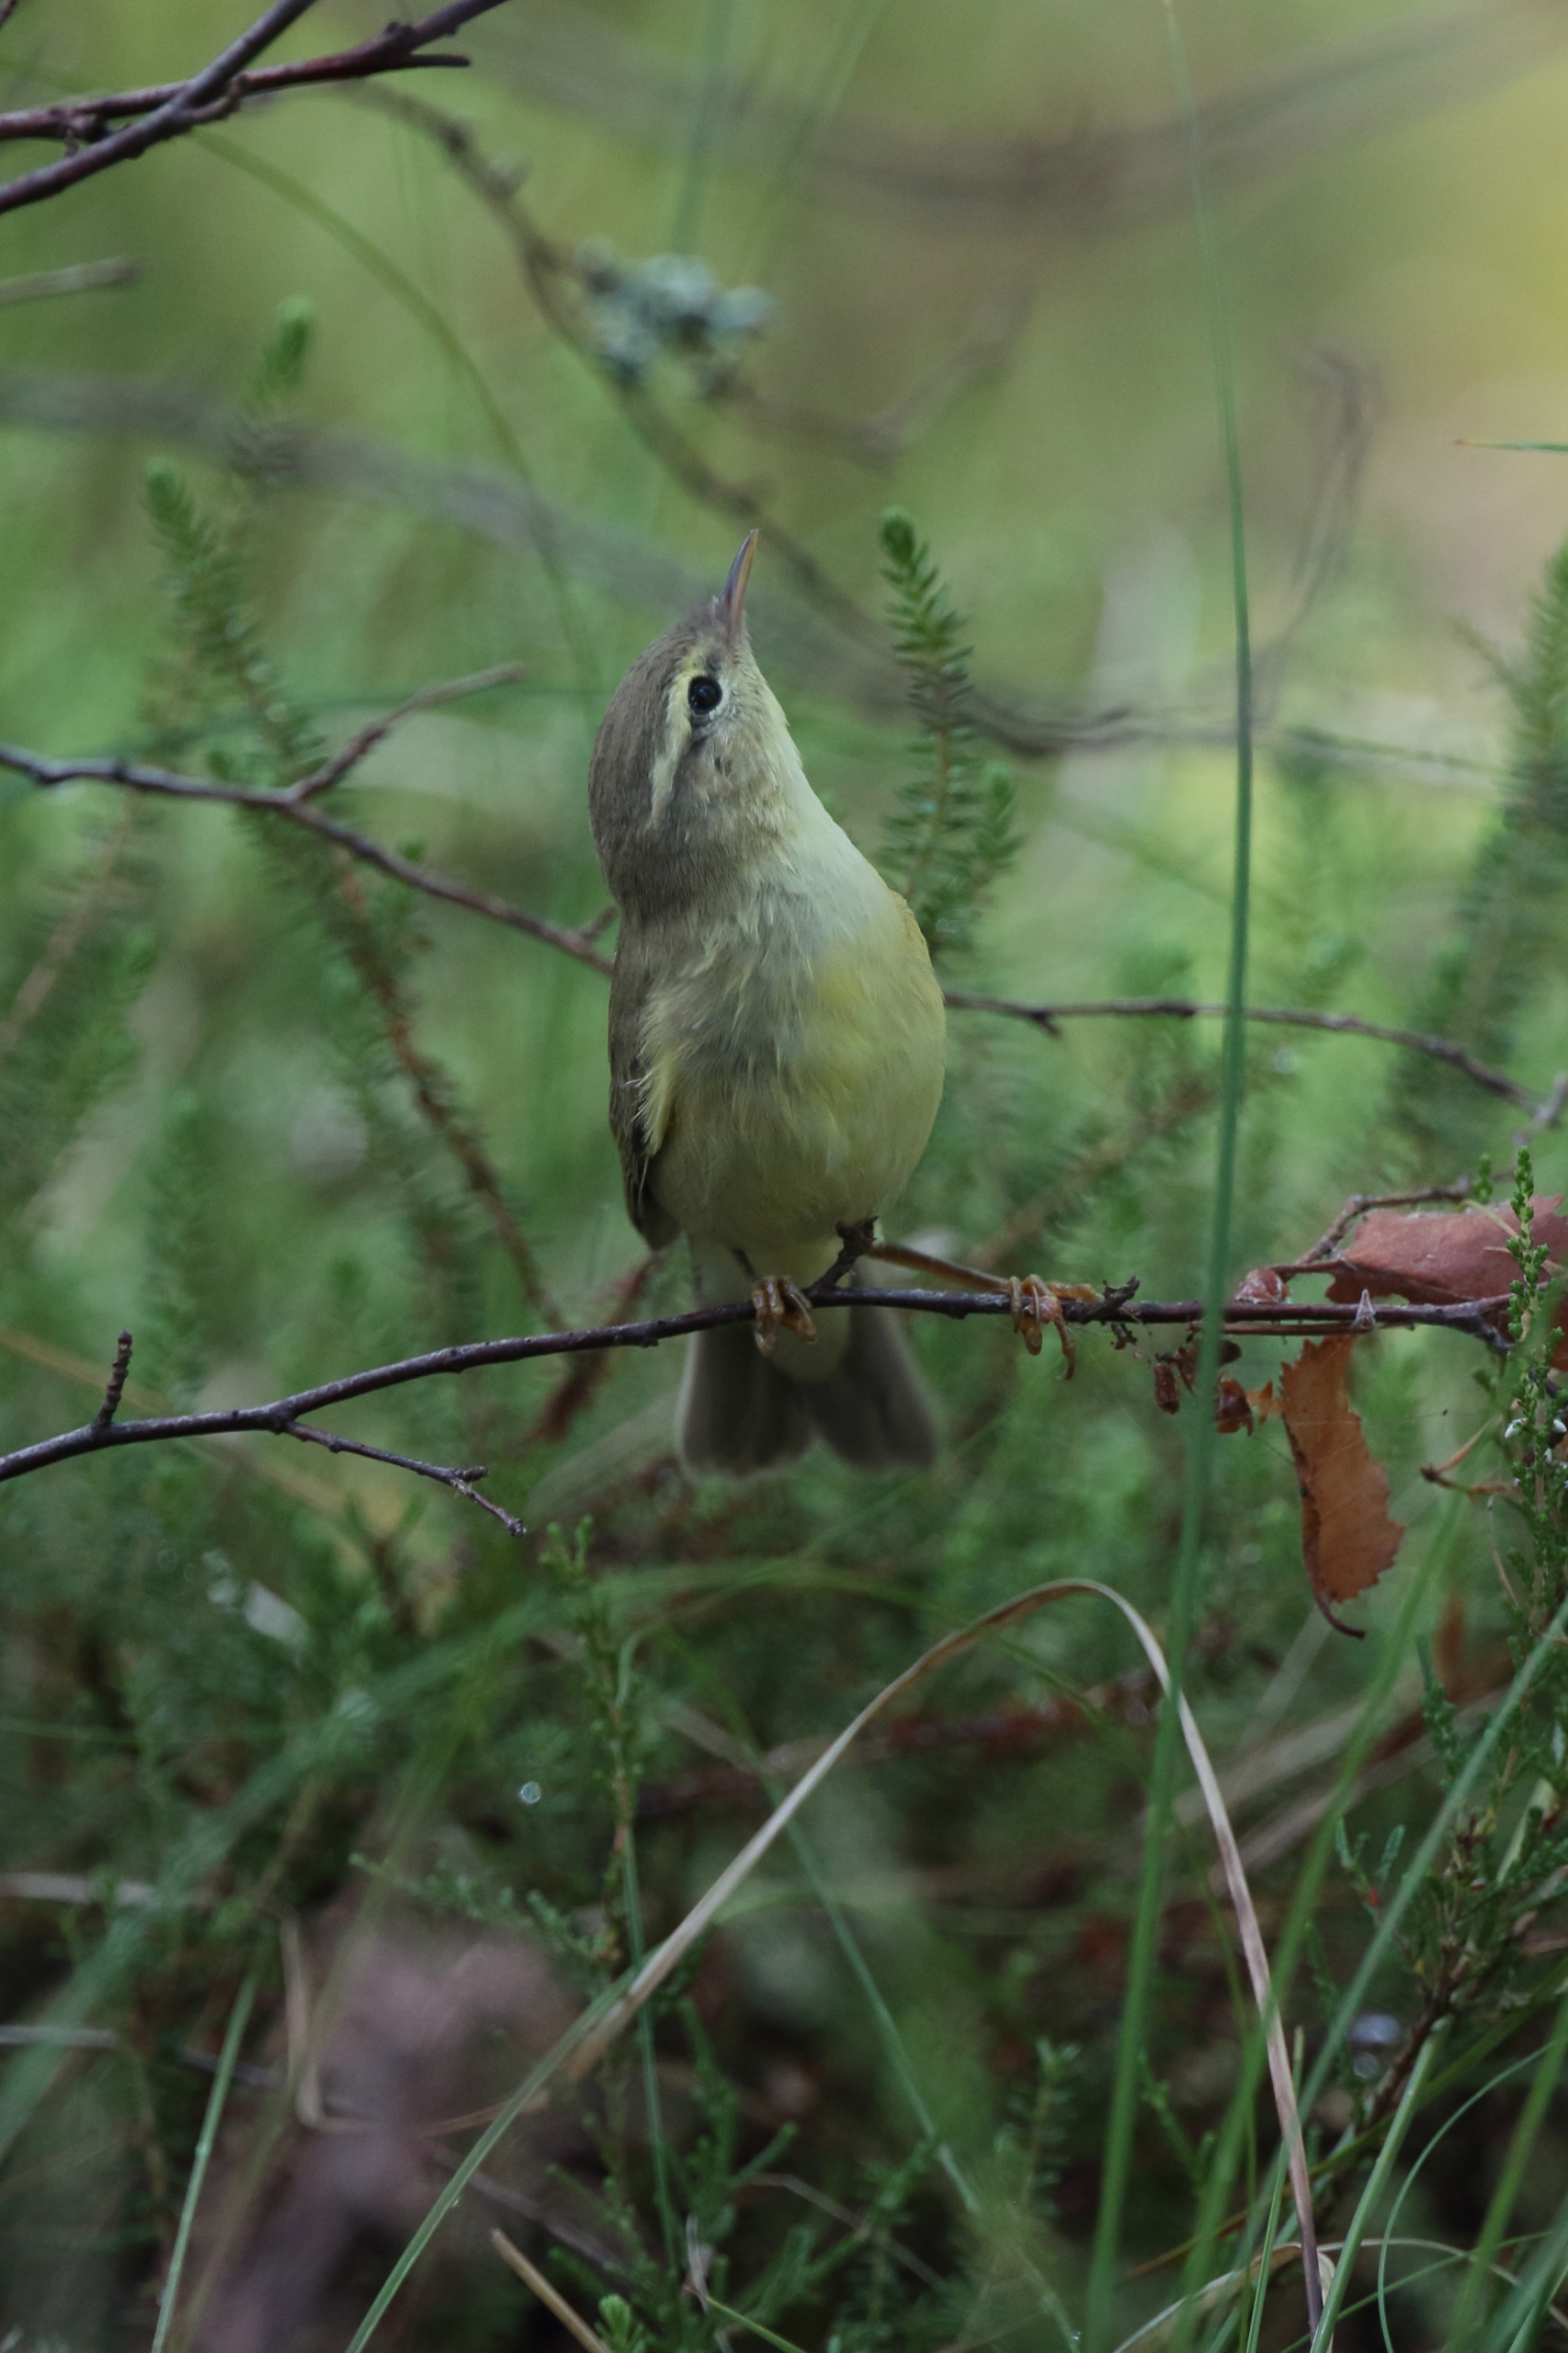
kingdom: Animalia
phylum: Chordata
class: Aves
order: Passeriformes
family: Phylloscopidae
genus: Phylloscopus
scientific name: Phylloscopus trochilus
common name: Løvsanger
